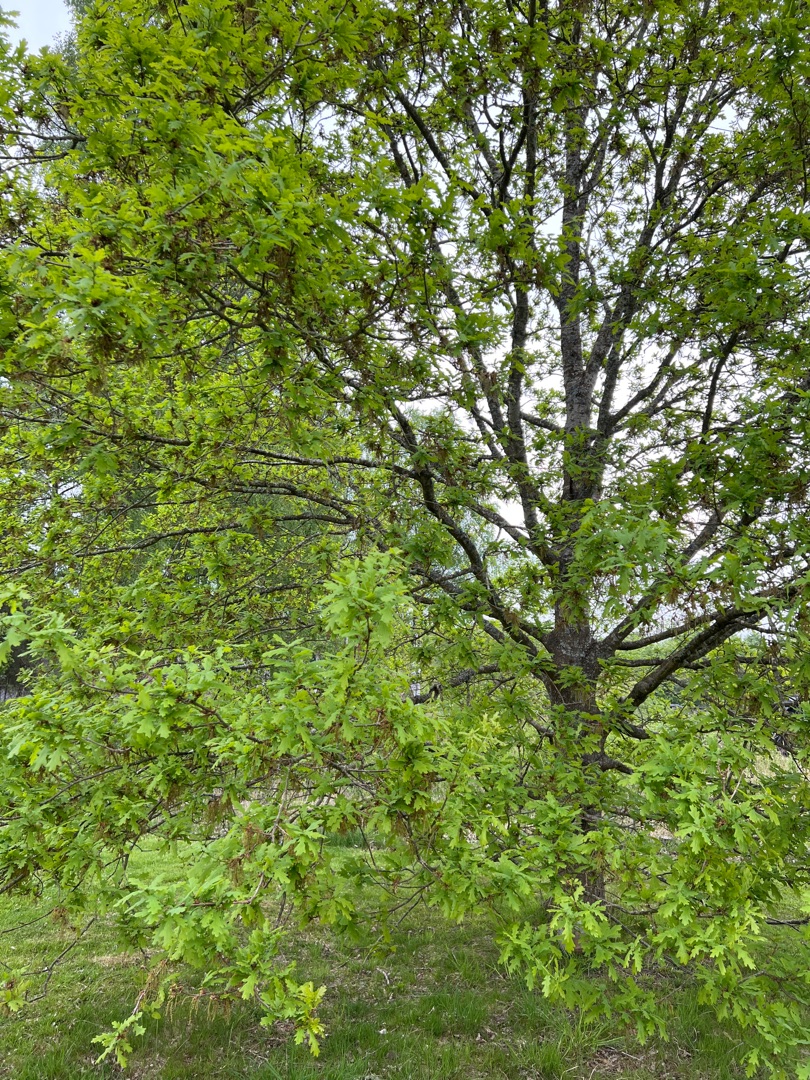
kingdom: Plantae
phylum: Tracheophyta
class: Magnoliopsida
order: Fagales
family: Fagaceae
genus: Quercus
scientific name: Quercus robur
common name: Stilk-eg/almindelig eg
